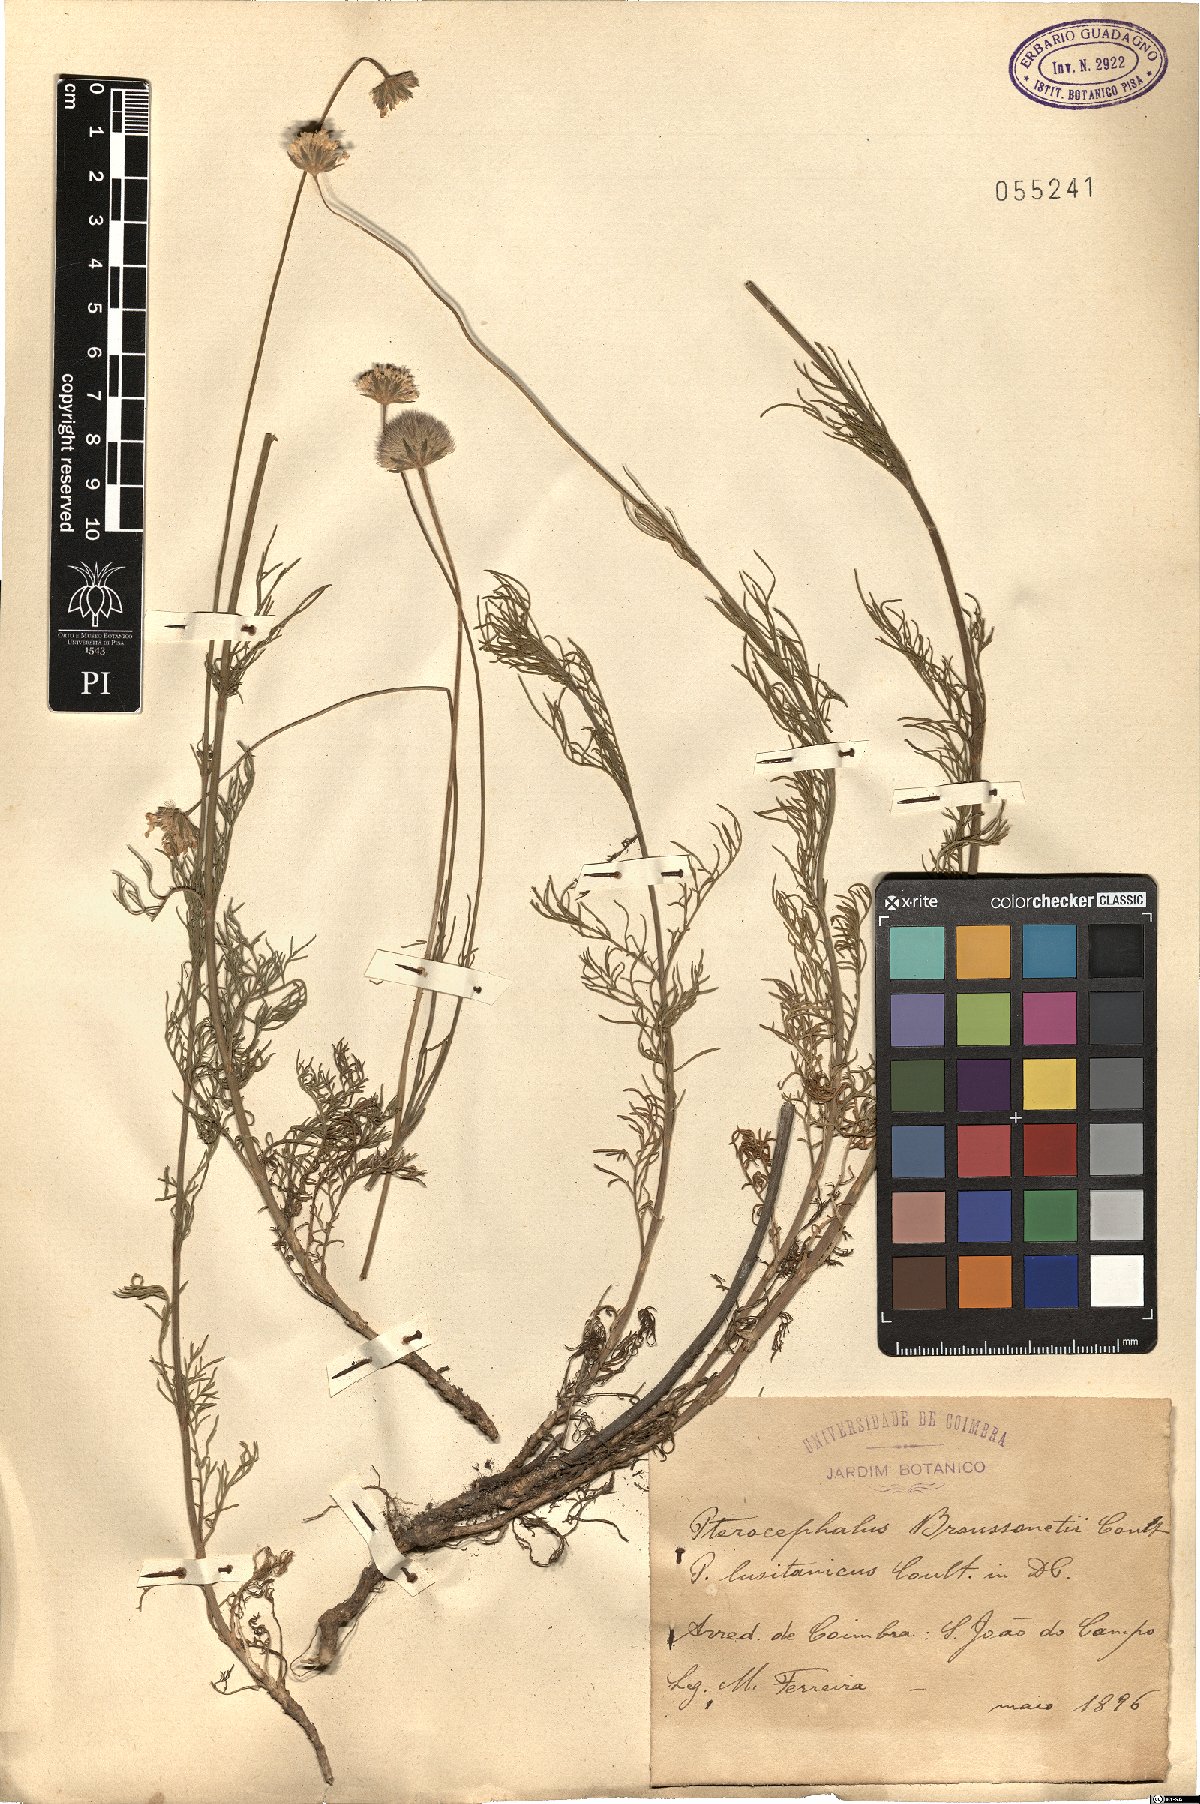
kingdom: Plantae
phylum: Tracheophyta
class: Magnoliopsida
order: Dipsacales
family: Caprifoliaceae
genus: Pycnocomon
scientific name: Pycnocomon intermedium
